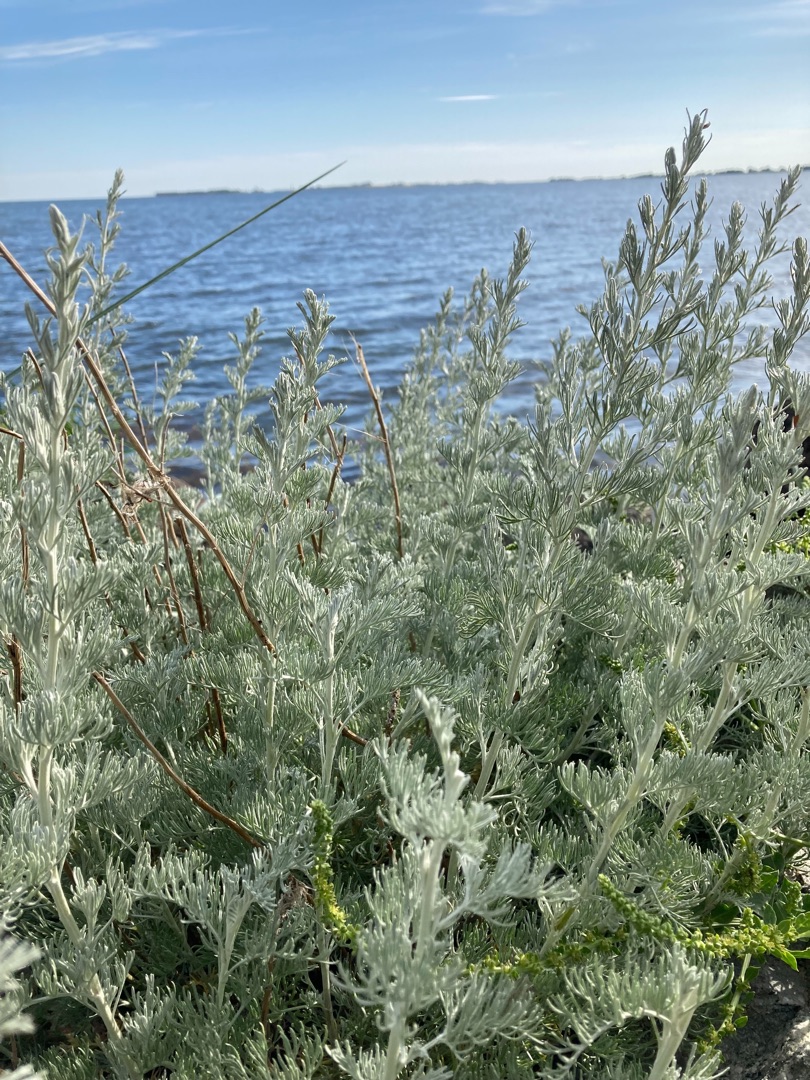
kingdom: Plantae
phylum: Tracheophyta
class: Magnoliopsida
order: Asterales
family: Asteraceae
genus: Artemisia
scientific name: Artemisia maritima
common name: Strandmalurt
